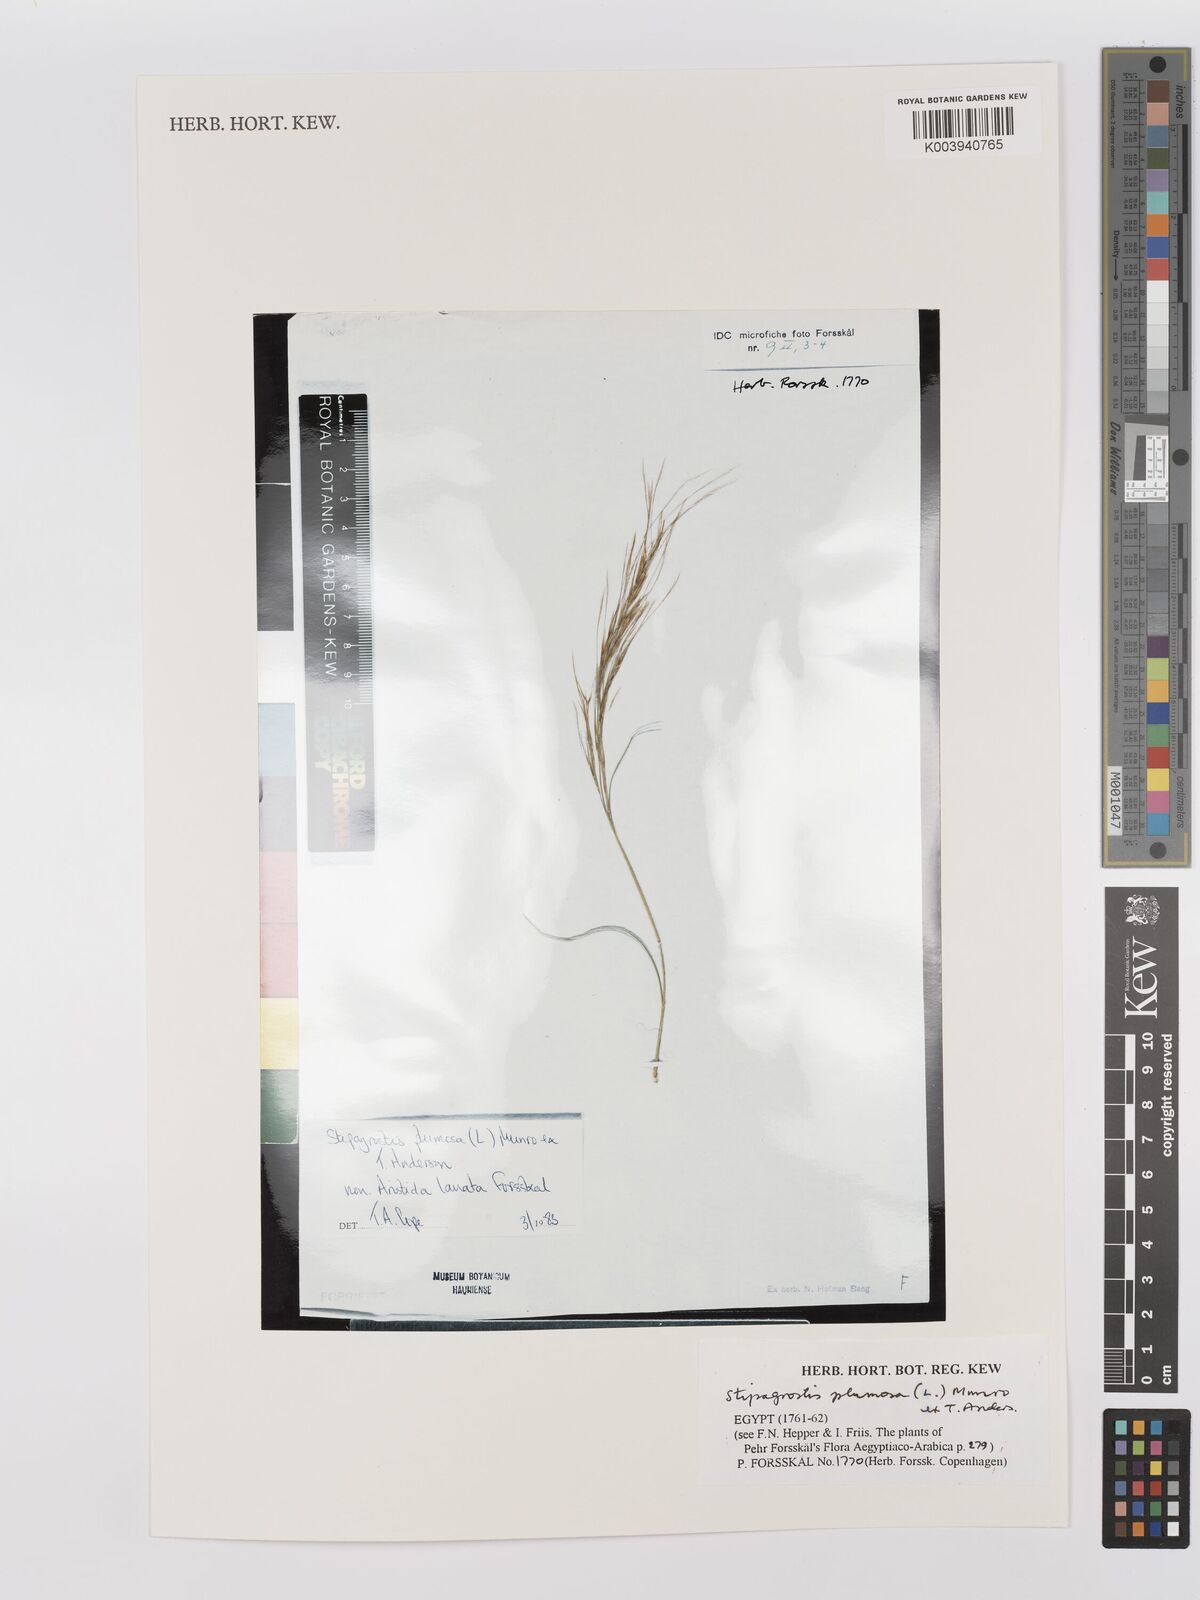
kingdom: Plantae
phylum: Tracheophyta
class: Liliopsida
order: Poales
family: Poaceae
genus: Stipagrostis
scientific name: Stipagrostis plumosa
